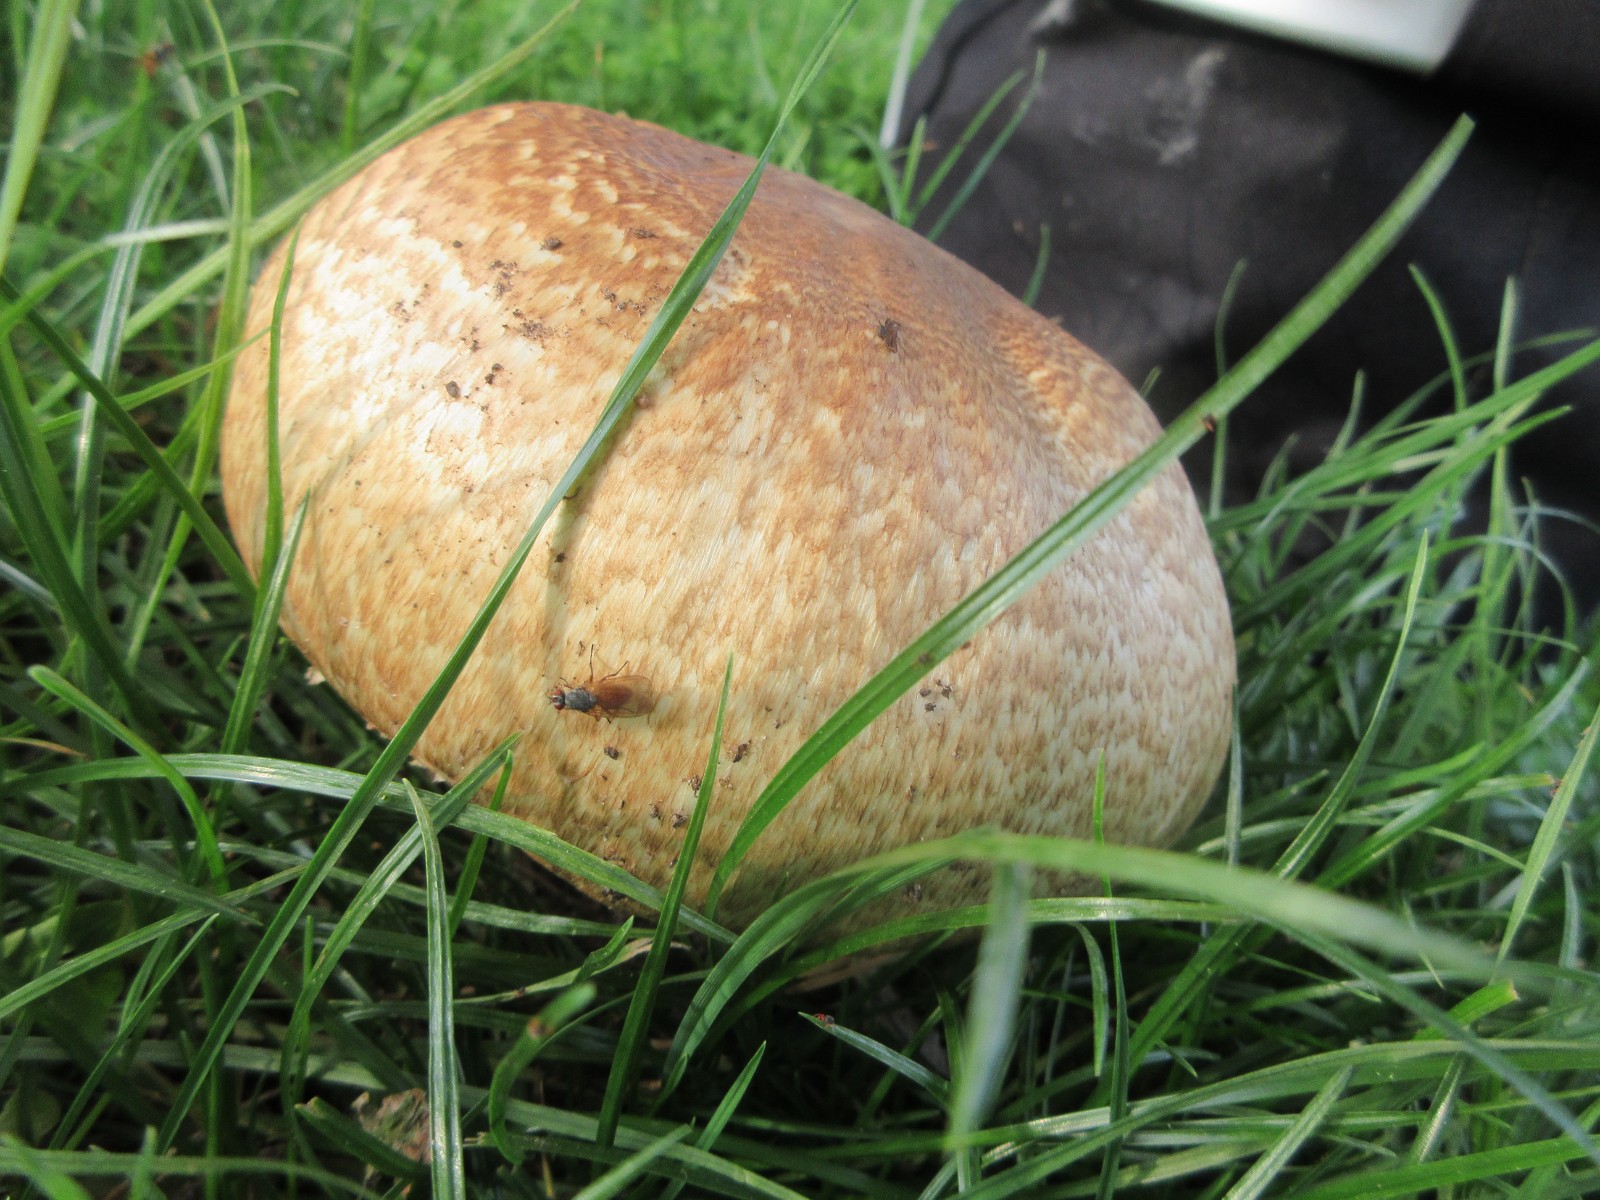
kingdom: Fungi
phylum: Basidiomycota
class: Agaricomycetes
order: Agaricales
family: Agaricaceae
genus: Agaricus
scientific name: Agaricus augustus
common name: prægtig champignon
